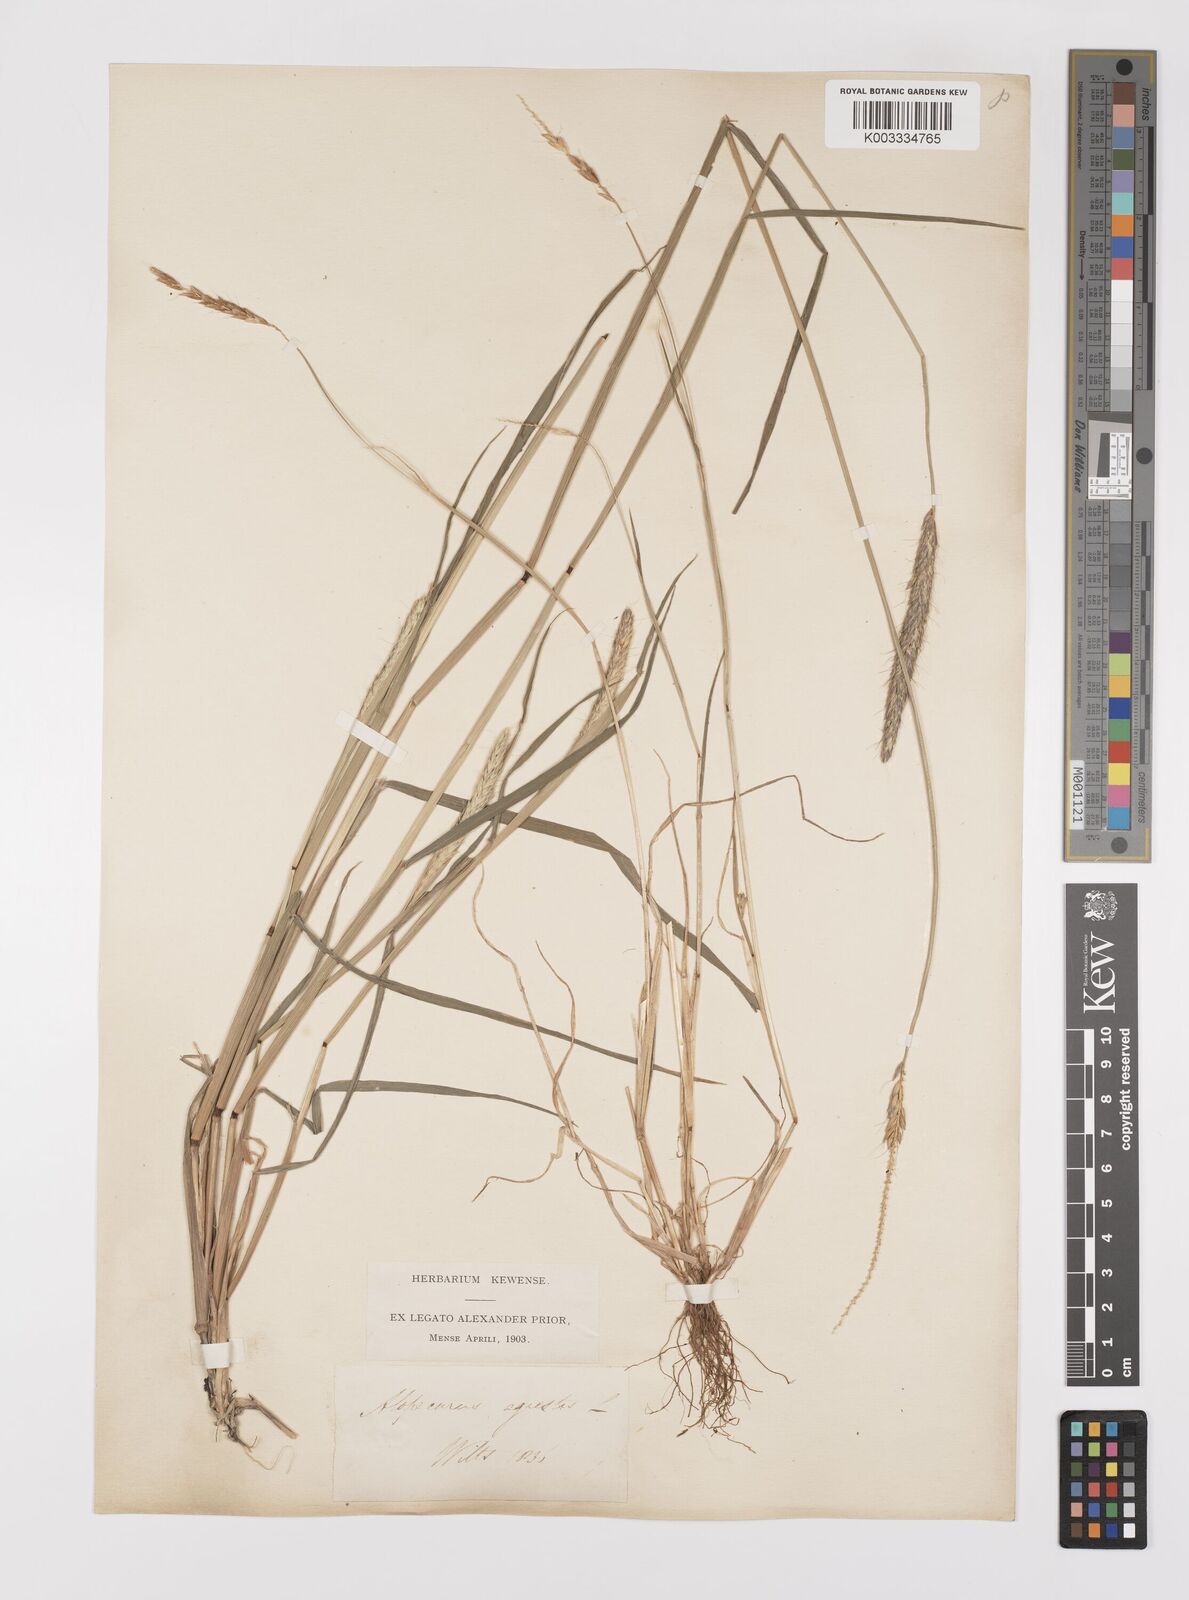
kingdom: Plantae
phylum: Tracheophyta
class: Liliopsida
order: Poales
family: Poaceae
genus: Alopecurus
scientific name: Alopecurus myosuroides
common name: Black-grass
